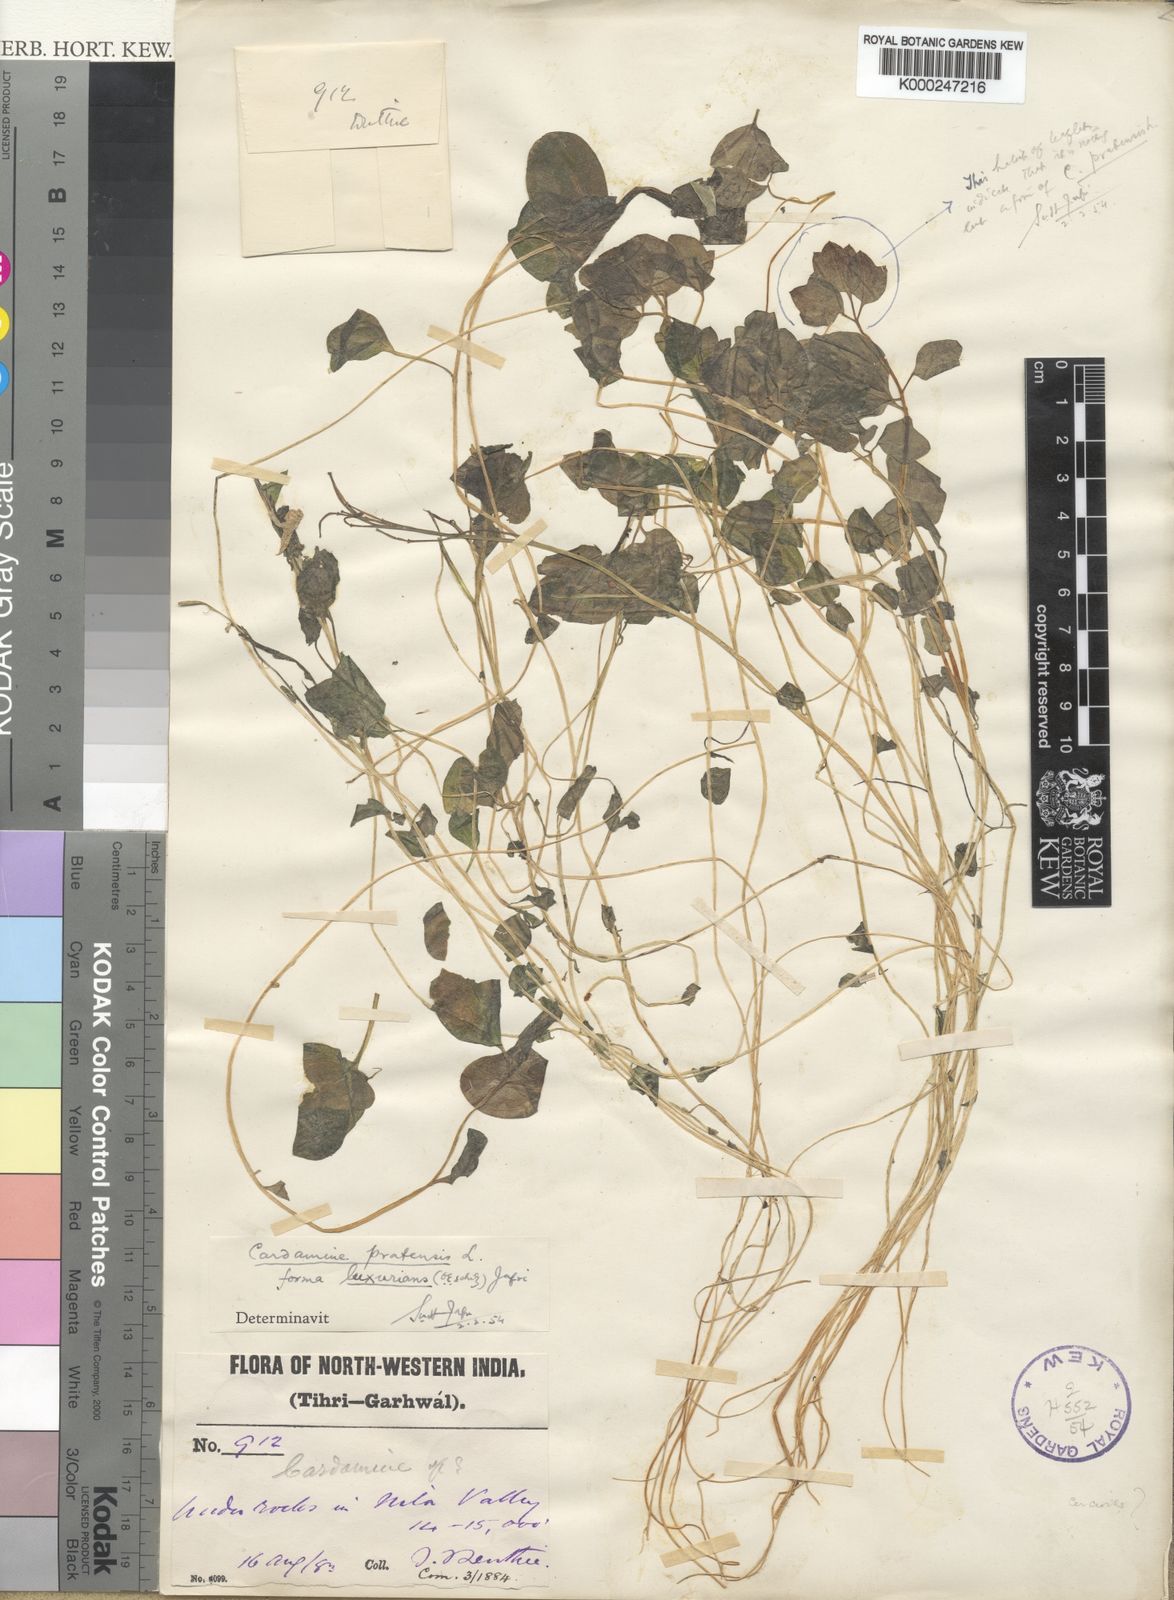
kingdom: Plantae
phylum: Tracheophyta
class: Magnoliopsida
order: Brassicales
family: Brassicaceae
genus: Cardamine
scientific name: Cardamine loxostemonoides
